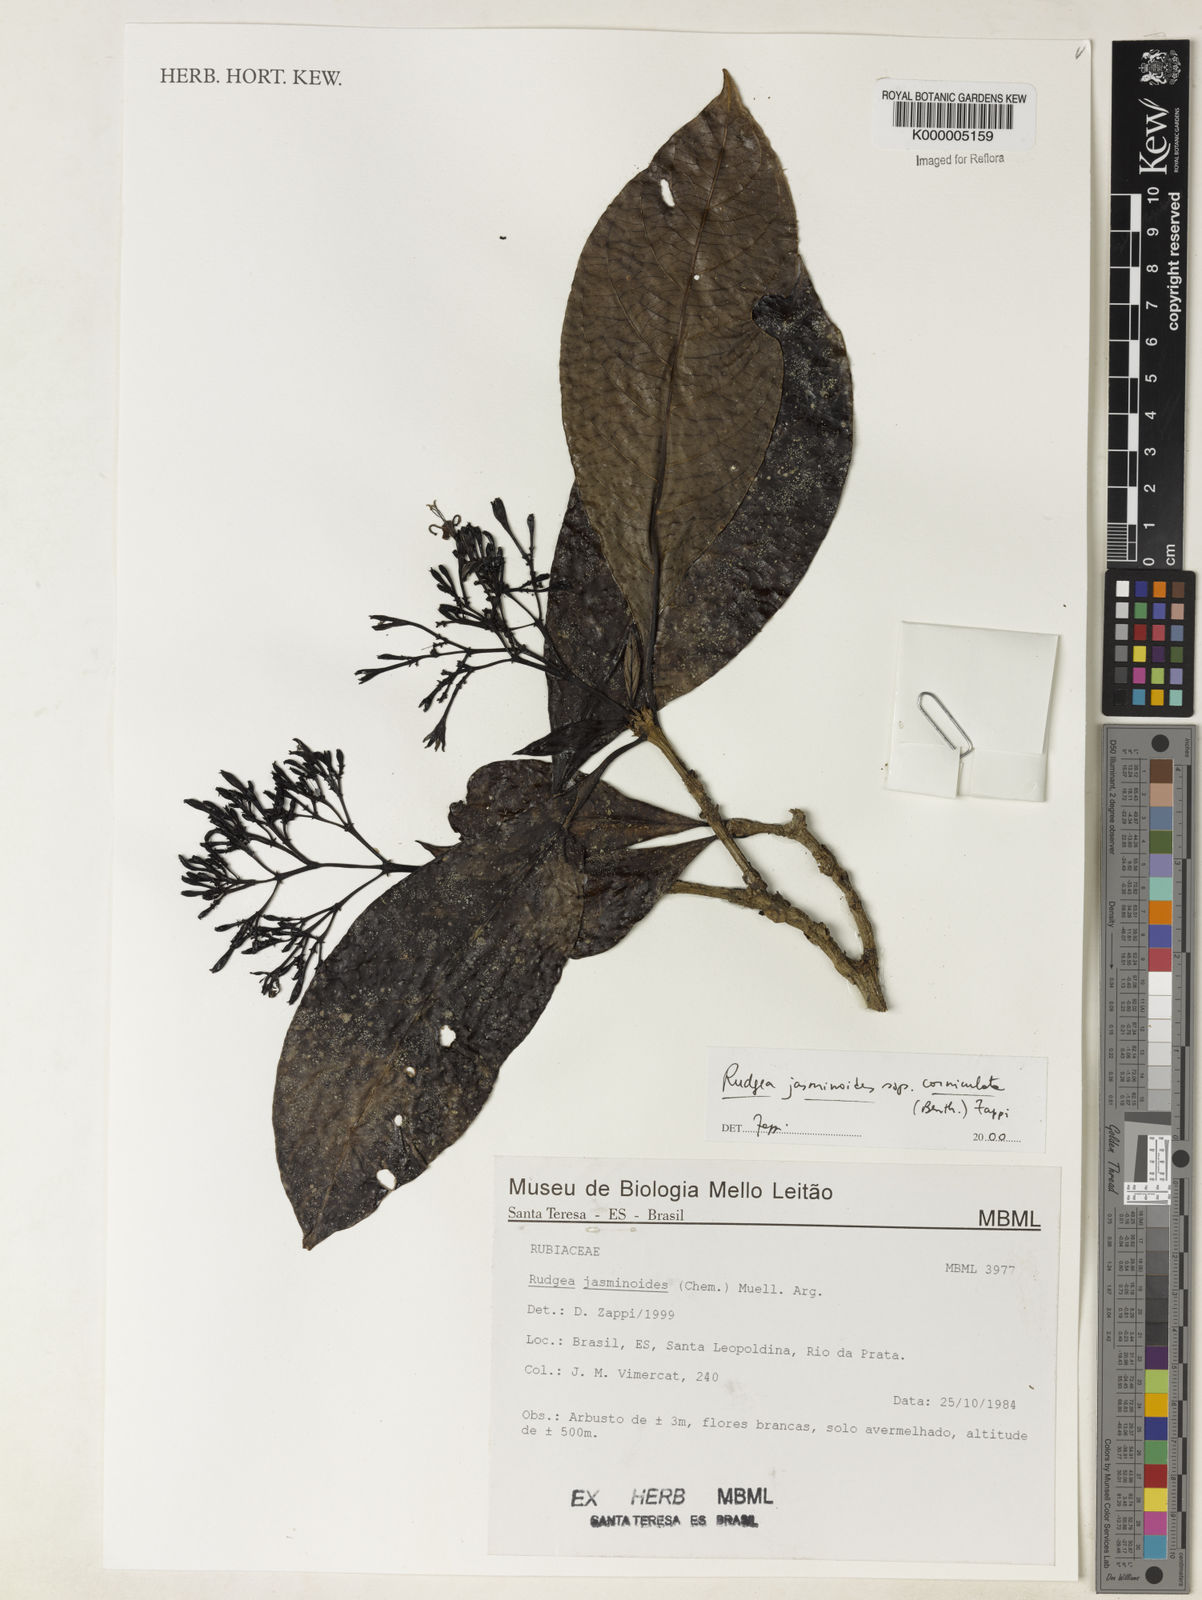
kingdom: Plantae
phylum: Tracheophyta
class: Magnoliopsida
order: Gentianales
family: Rubiaceae
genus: Rudgea
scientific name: Rudgea jasminoides
